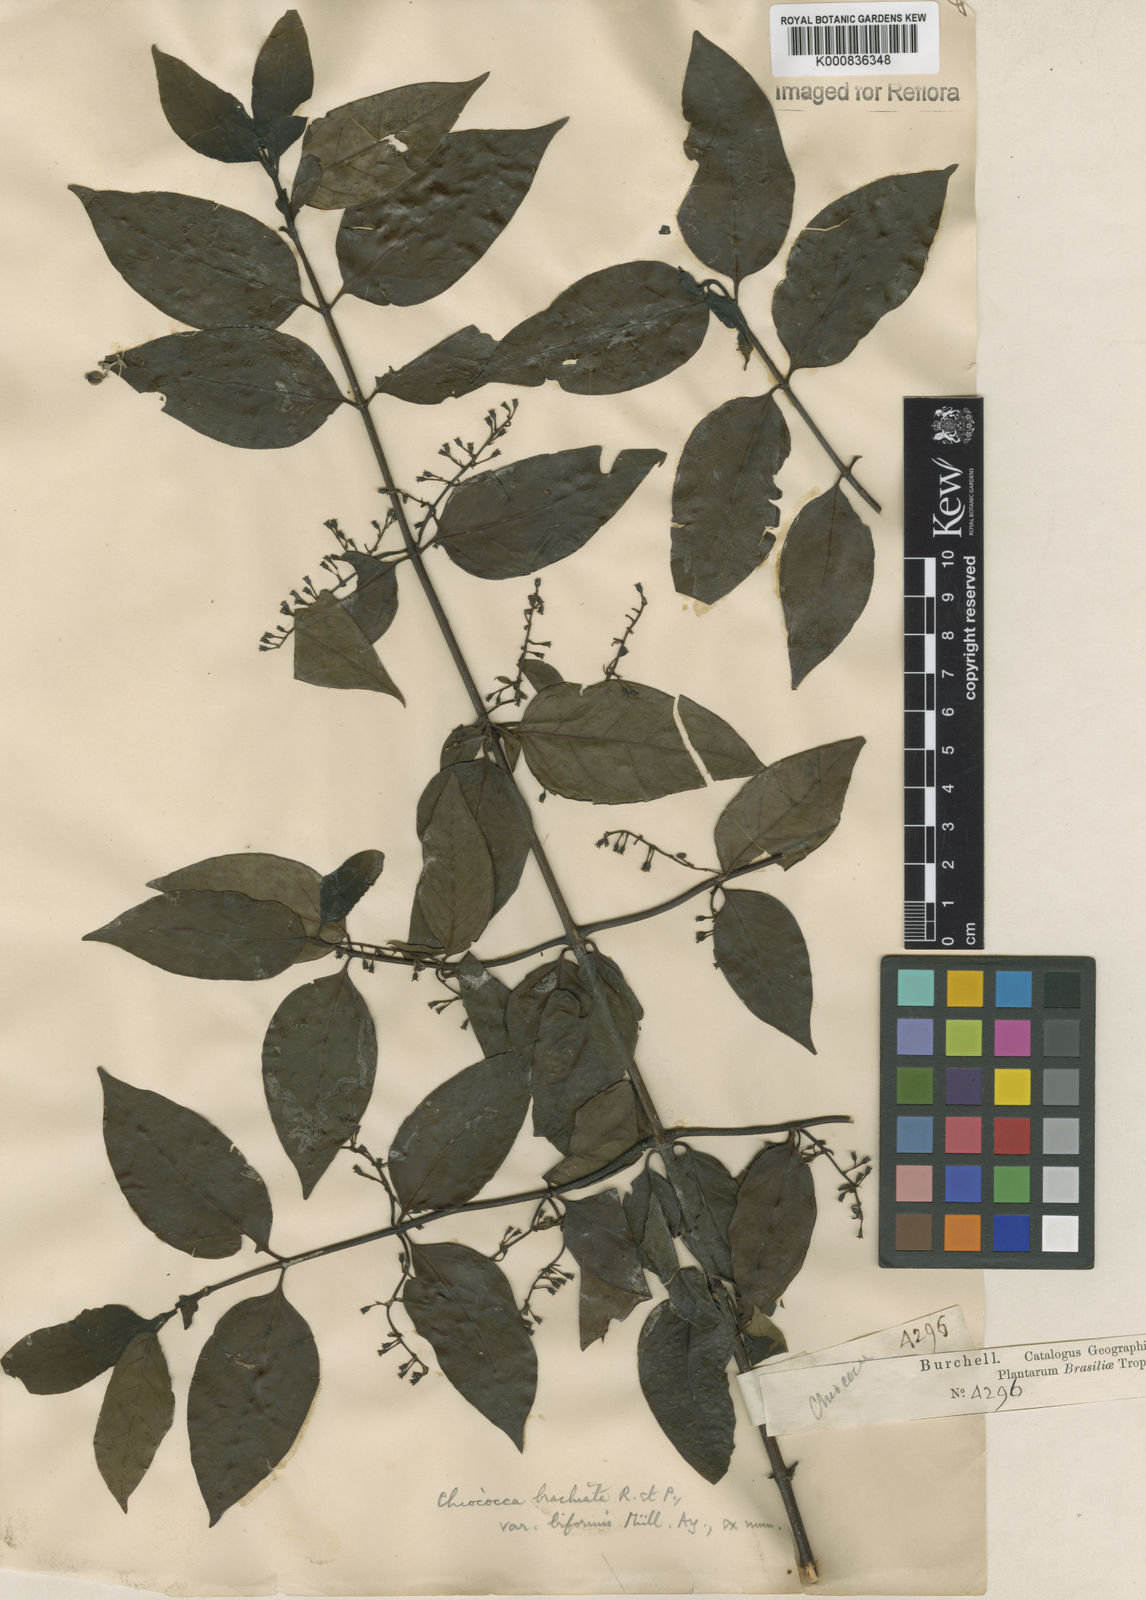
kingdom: Plantae
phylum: Tracheophyta
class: Magnoliopsida
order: Gentianales
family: Rubiaceae
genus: Chiococca
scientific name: Chiococca alba
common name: Snowberry
